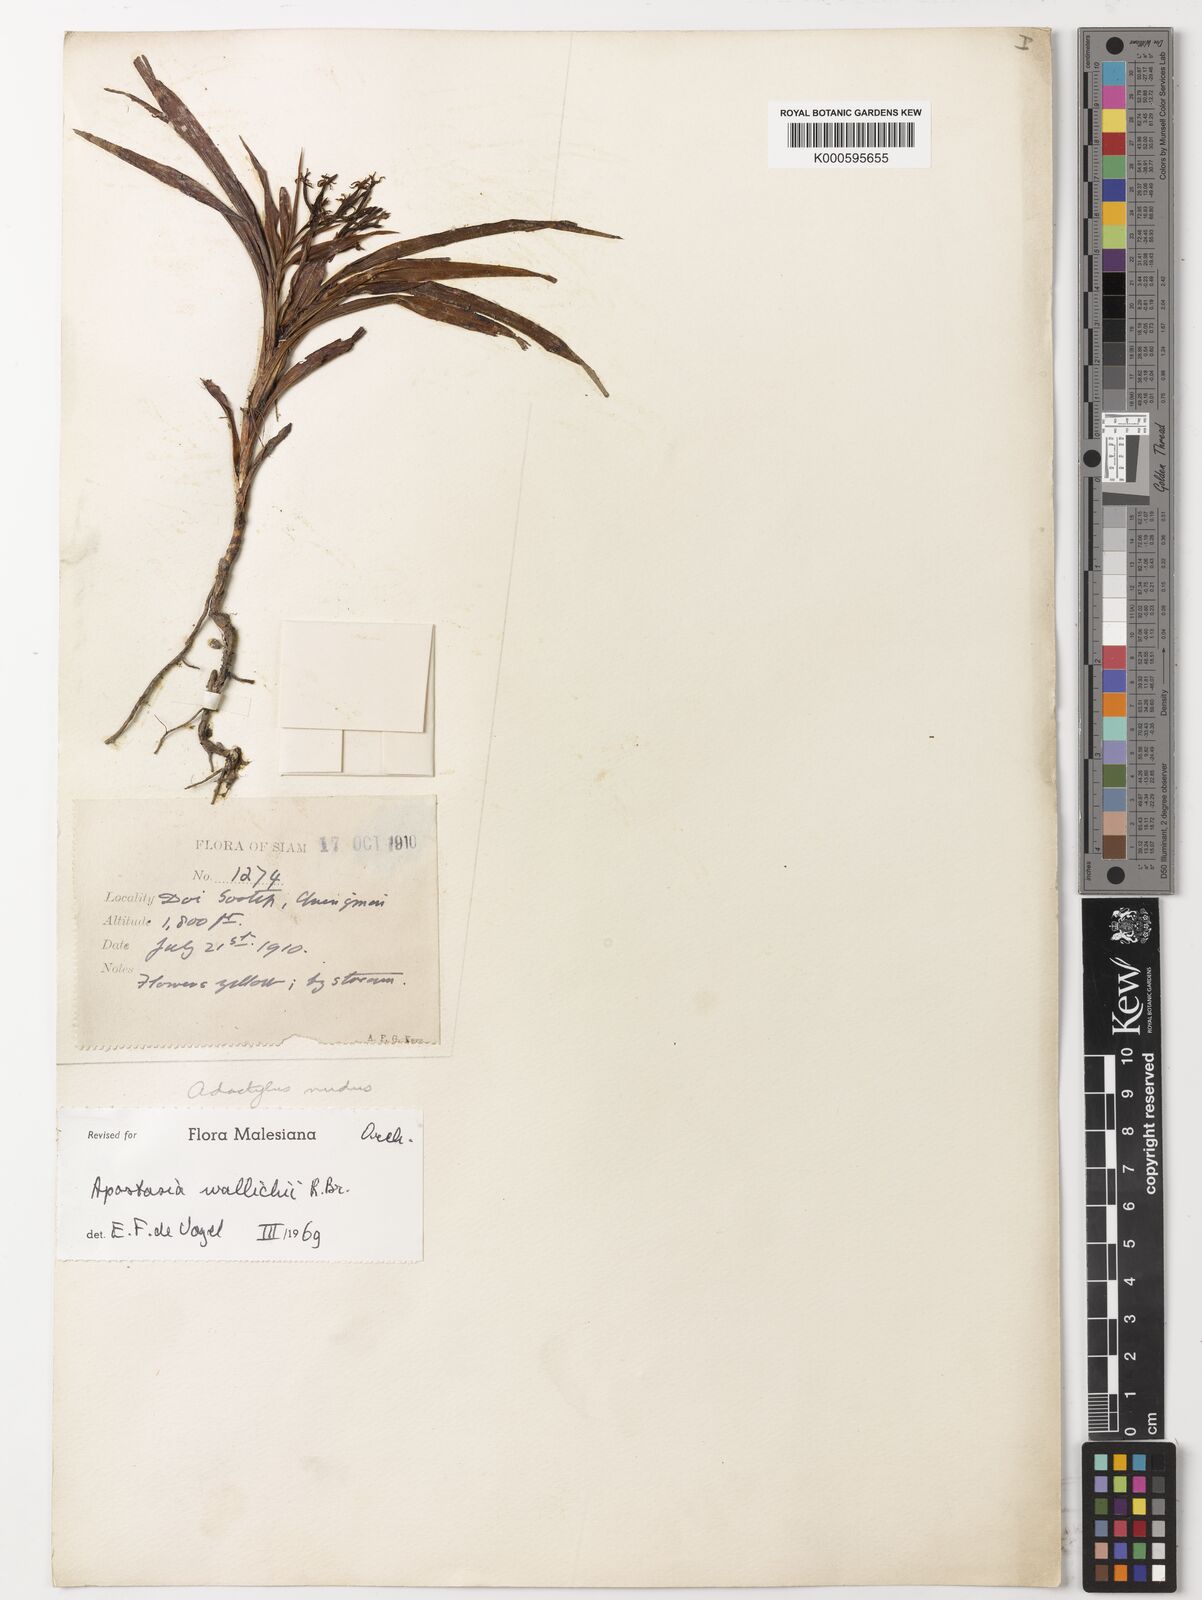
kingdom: Plantae
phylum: Tracheophyta
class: Liliopsida
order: Asparagales
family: Orchidaceae
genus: Apostasia
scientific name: Apostasia wallichii
